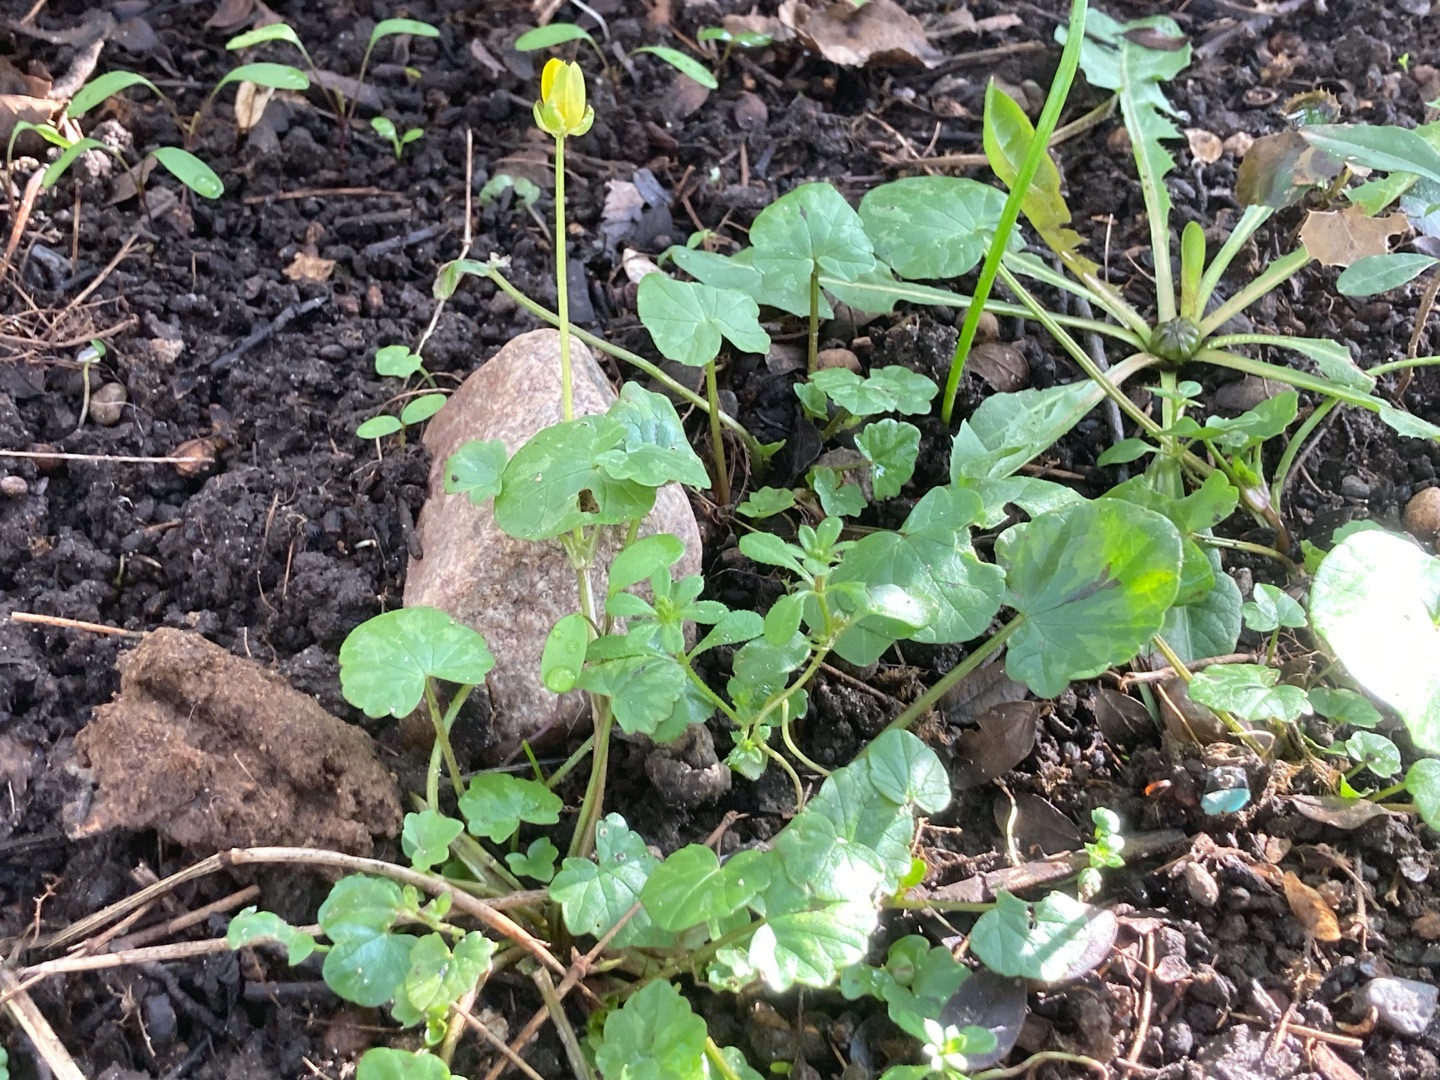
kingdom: Plantae
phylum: Tracheophyta
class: Magnoliopsida
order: Ranunculales
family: Ranunculaceae
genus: Ficaria
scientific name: Ficaria verna
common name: Vorterod
